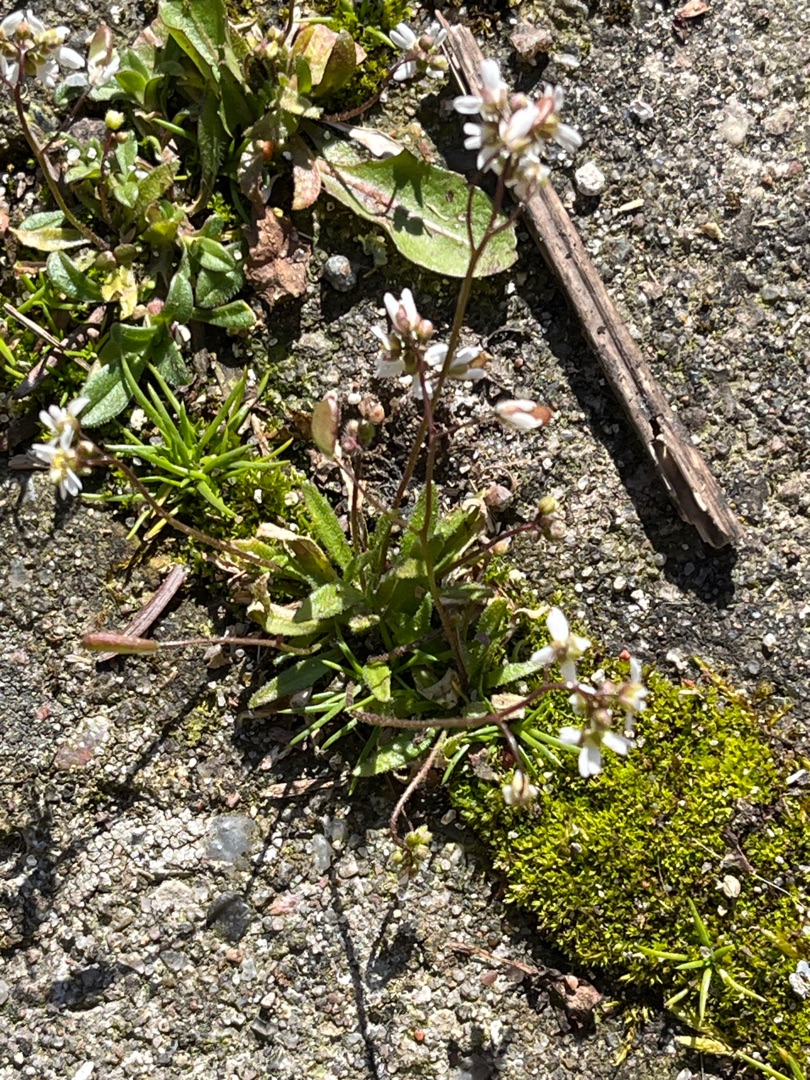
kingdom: Plantae
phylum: Tracheophyta
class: Magnoliopsida
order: Brassicales
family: Brassicaceae
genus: Draba
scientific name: Draba verna
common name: Vår-gæslingeblomst
